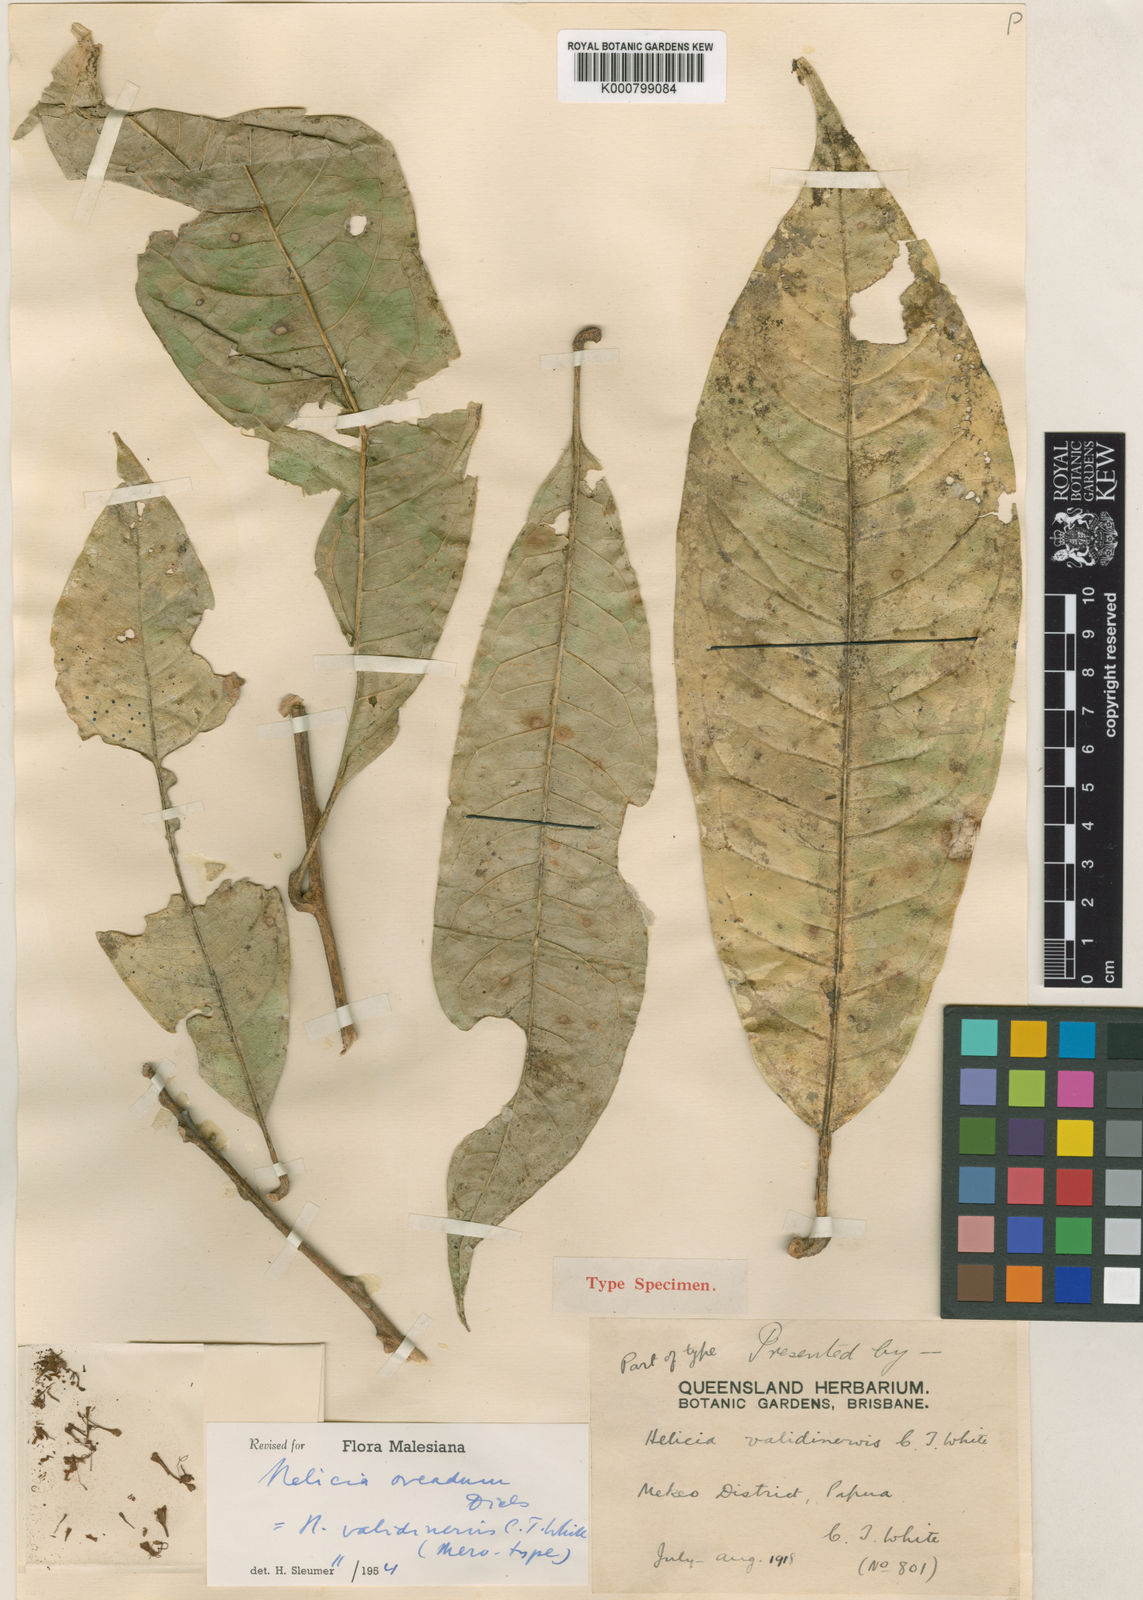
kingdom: Plantae
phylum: Tracheophyta
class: Magnoliopsida
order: Proteales
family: Proteaceae
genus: Helicia
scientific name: Helicia oreadum
